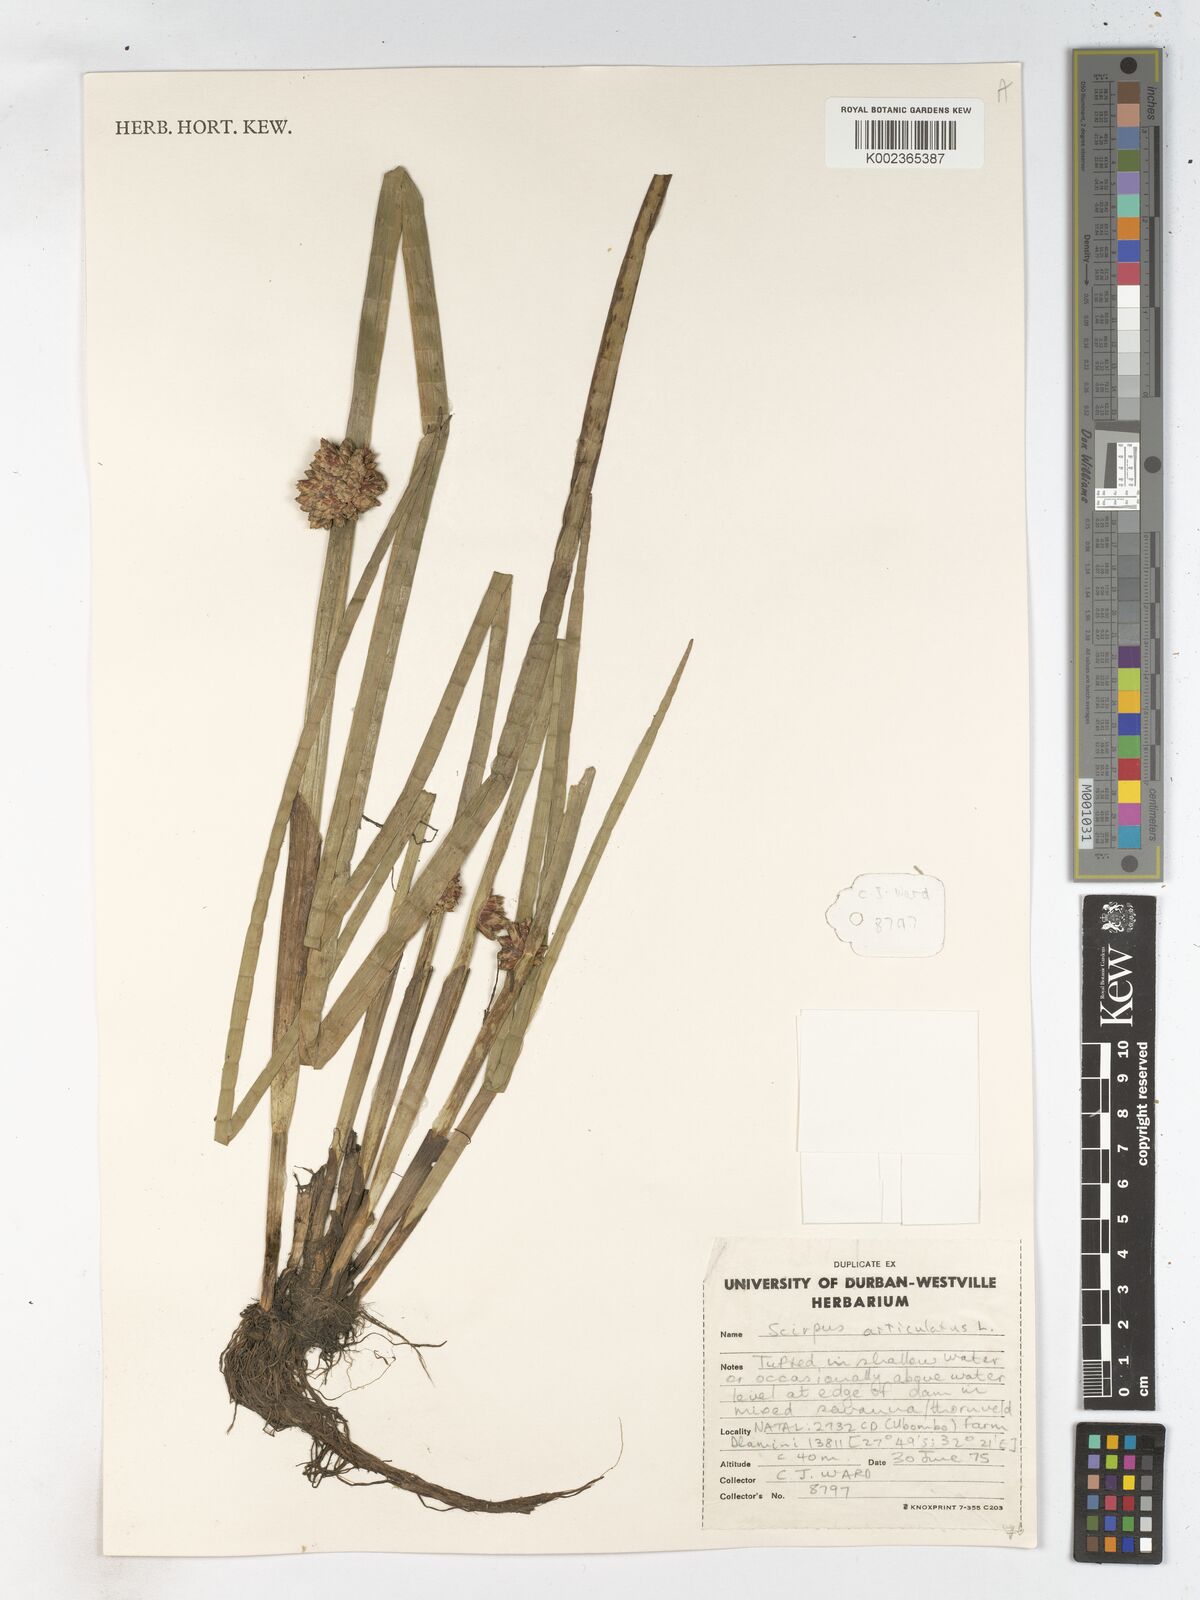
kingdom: Plantae
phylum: Tracheophyta
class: Liliopsida
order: Poales
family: Cyperaceae
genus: Schoenoplectiella
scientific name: Schoenoplectiella articulata
